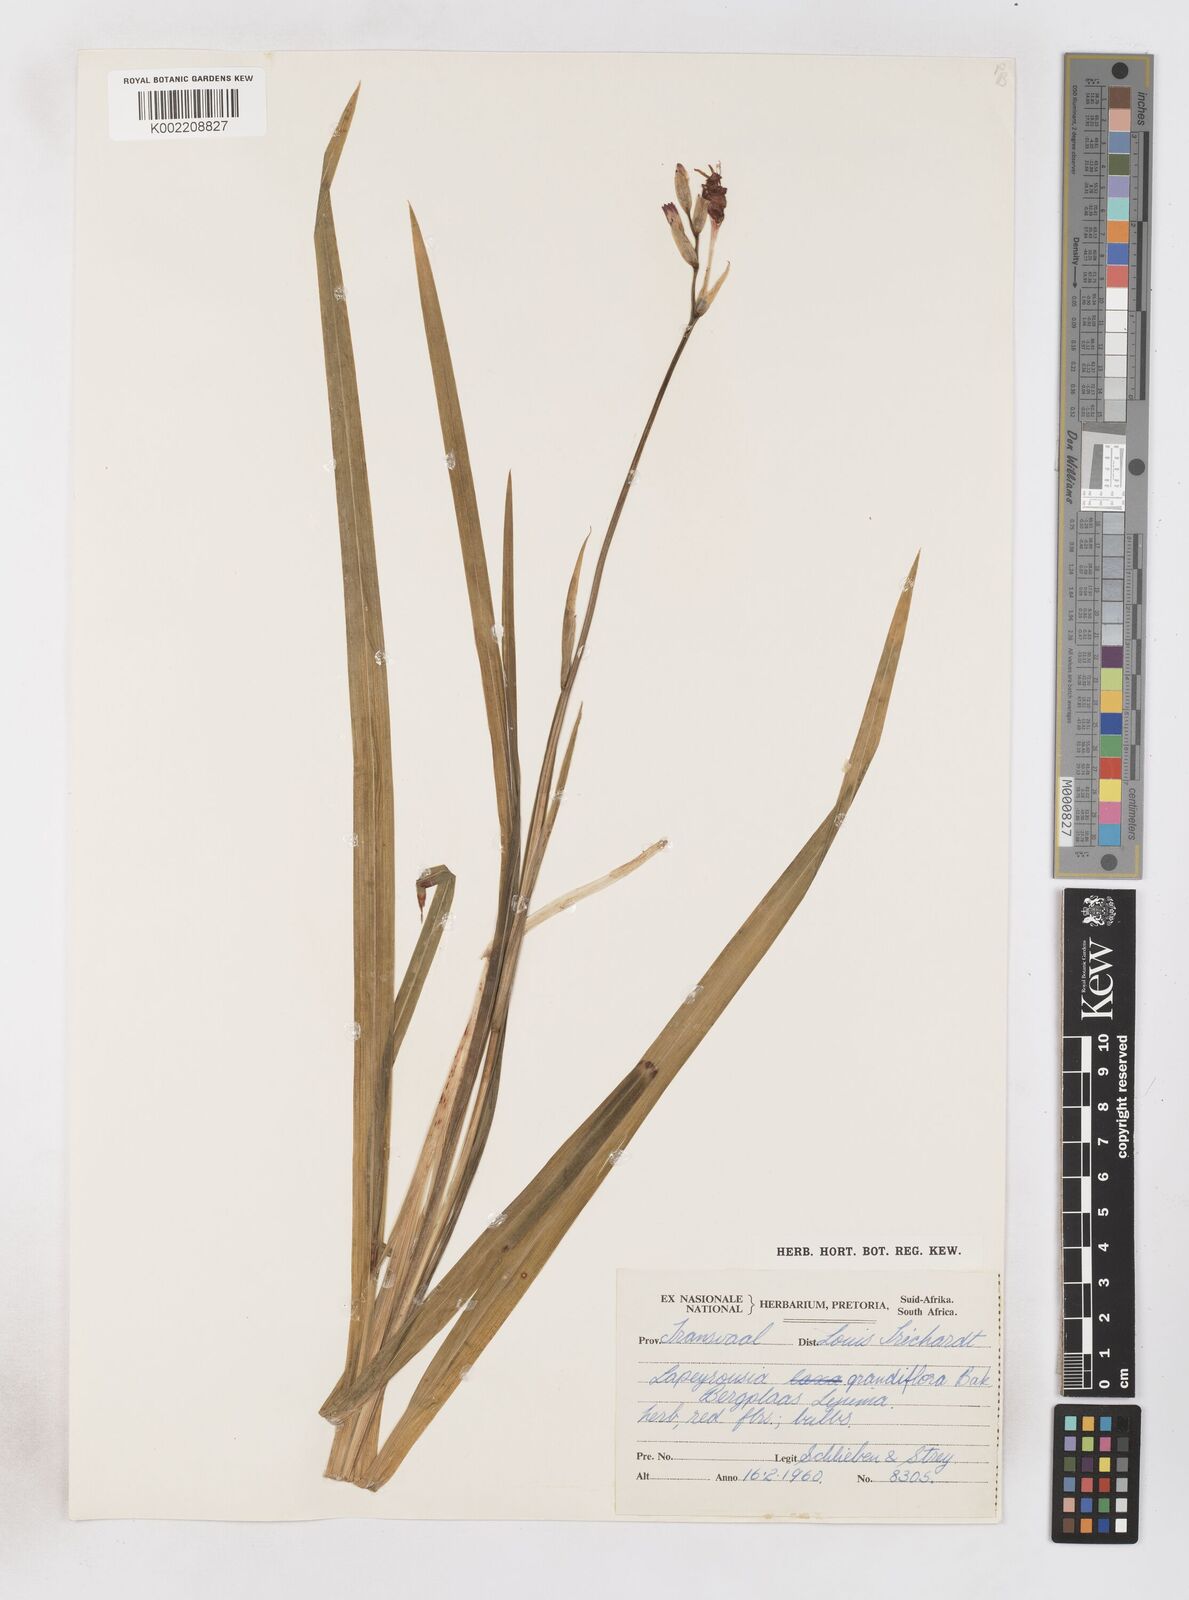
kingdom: Plantae
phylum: Tracheophyta
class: Liliopsida
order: Asparagales
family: Iridaceae
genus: Freesia
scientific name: Freesia grandiflora
